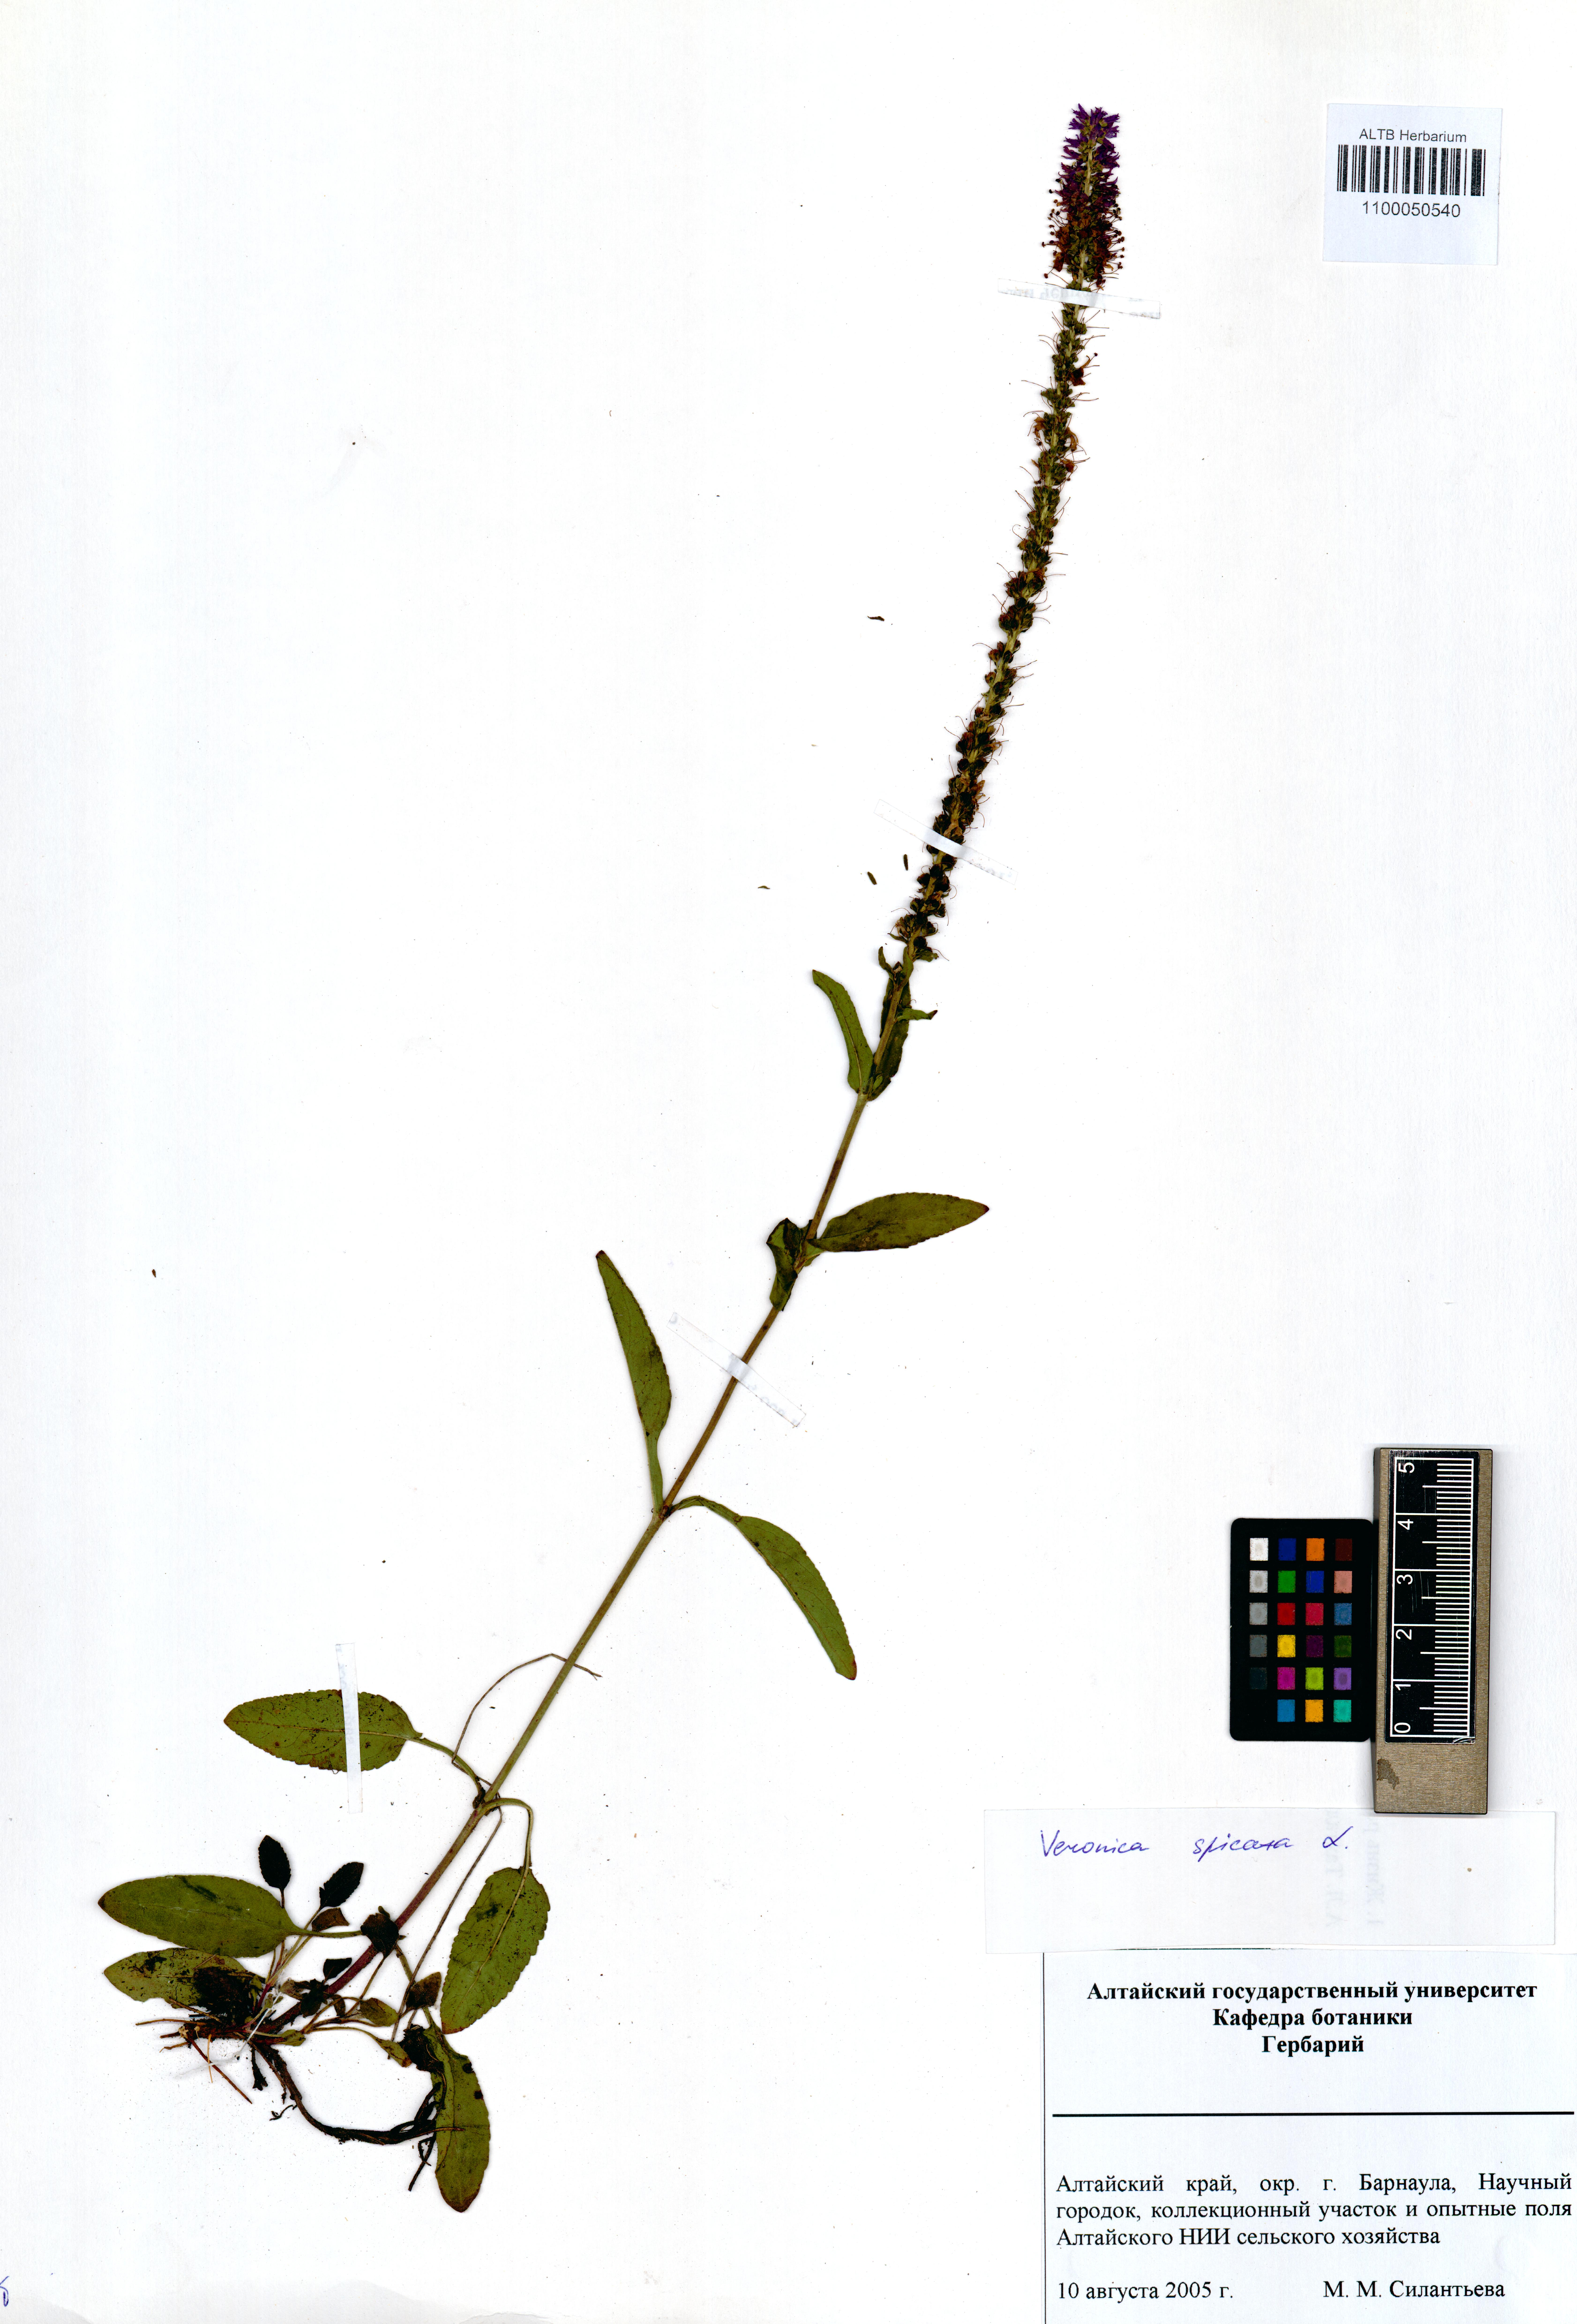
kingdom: Plantae
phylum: Tracheophyta
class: Magnoliopsida
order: Lamiales
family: Plantaginaceae
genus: Veronica
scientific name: Veronica spicata
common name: Spiked speedwell
